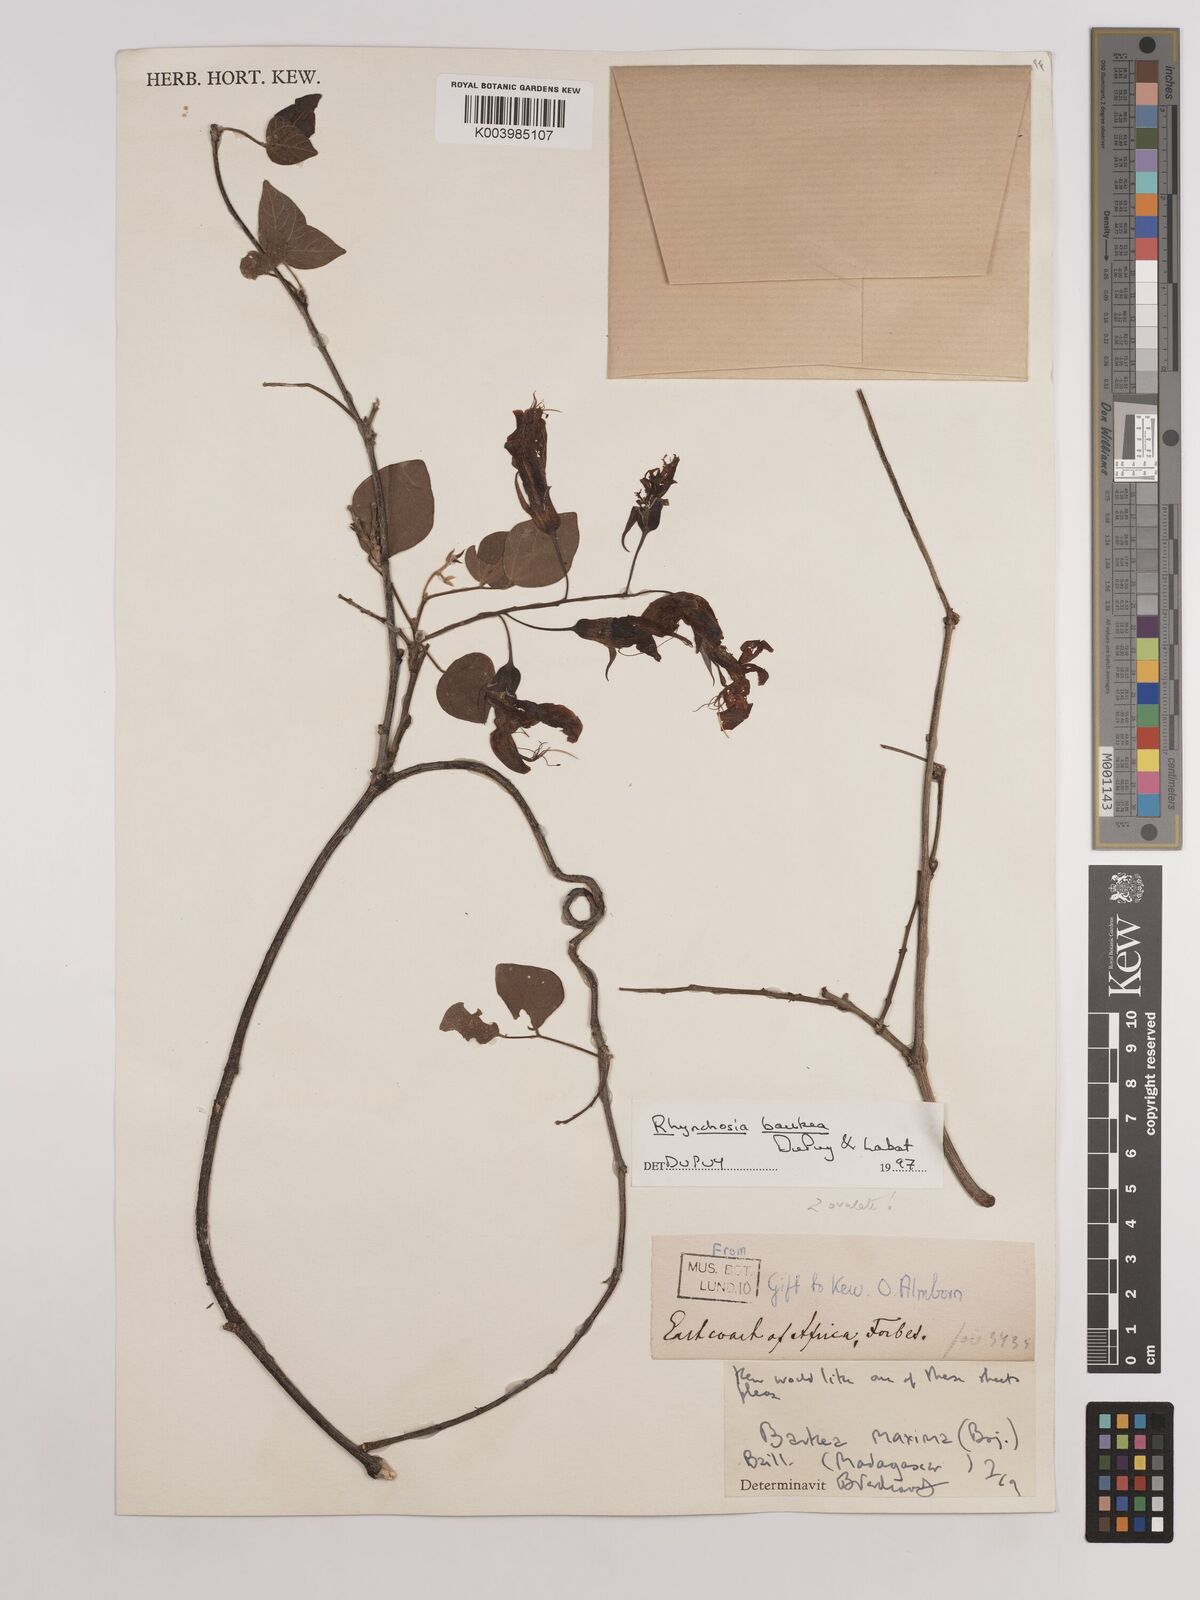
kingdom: Plantae
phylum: Tracheophyta
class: Magnoliopsida
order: Fabales
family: Fabaceae
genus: Rhynchosia
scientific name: Rhynchosia baukea
